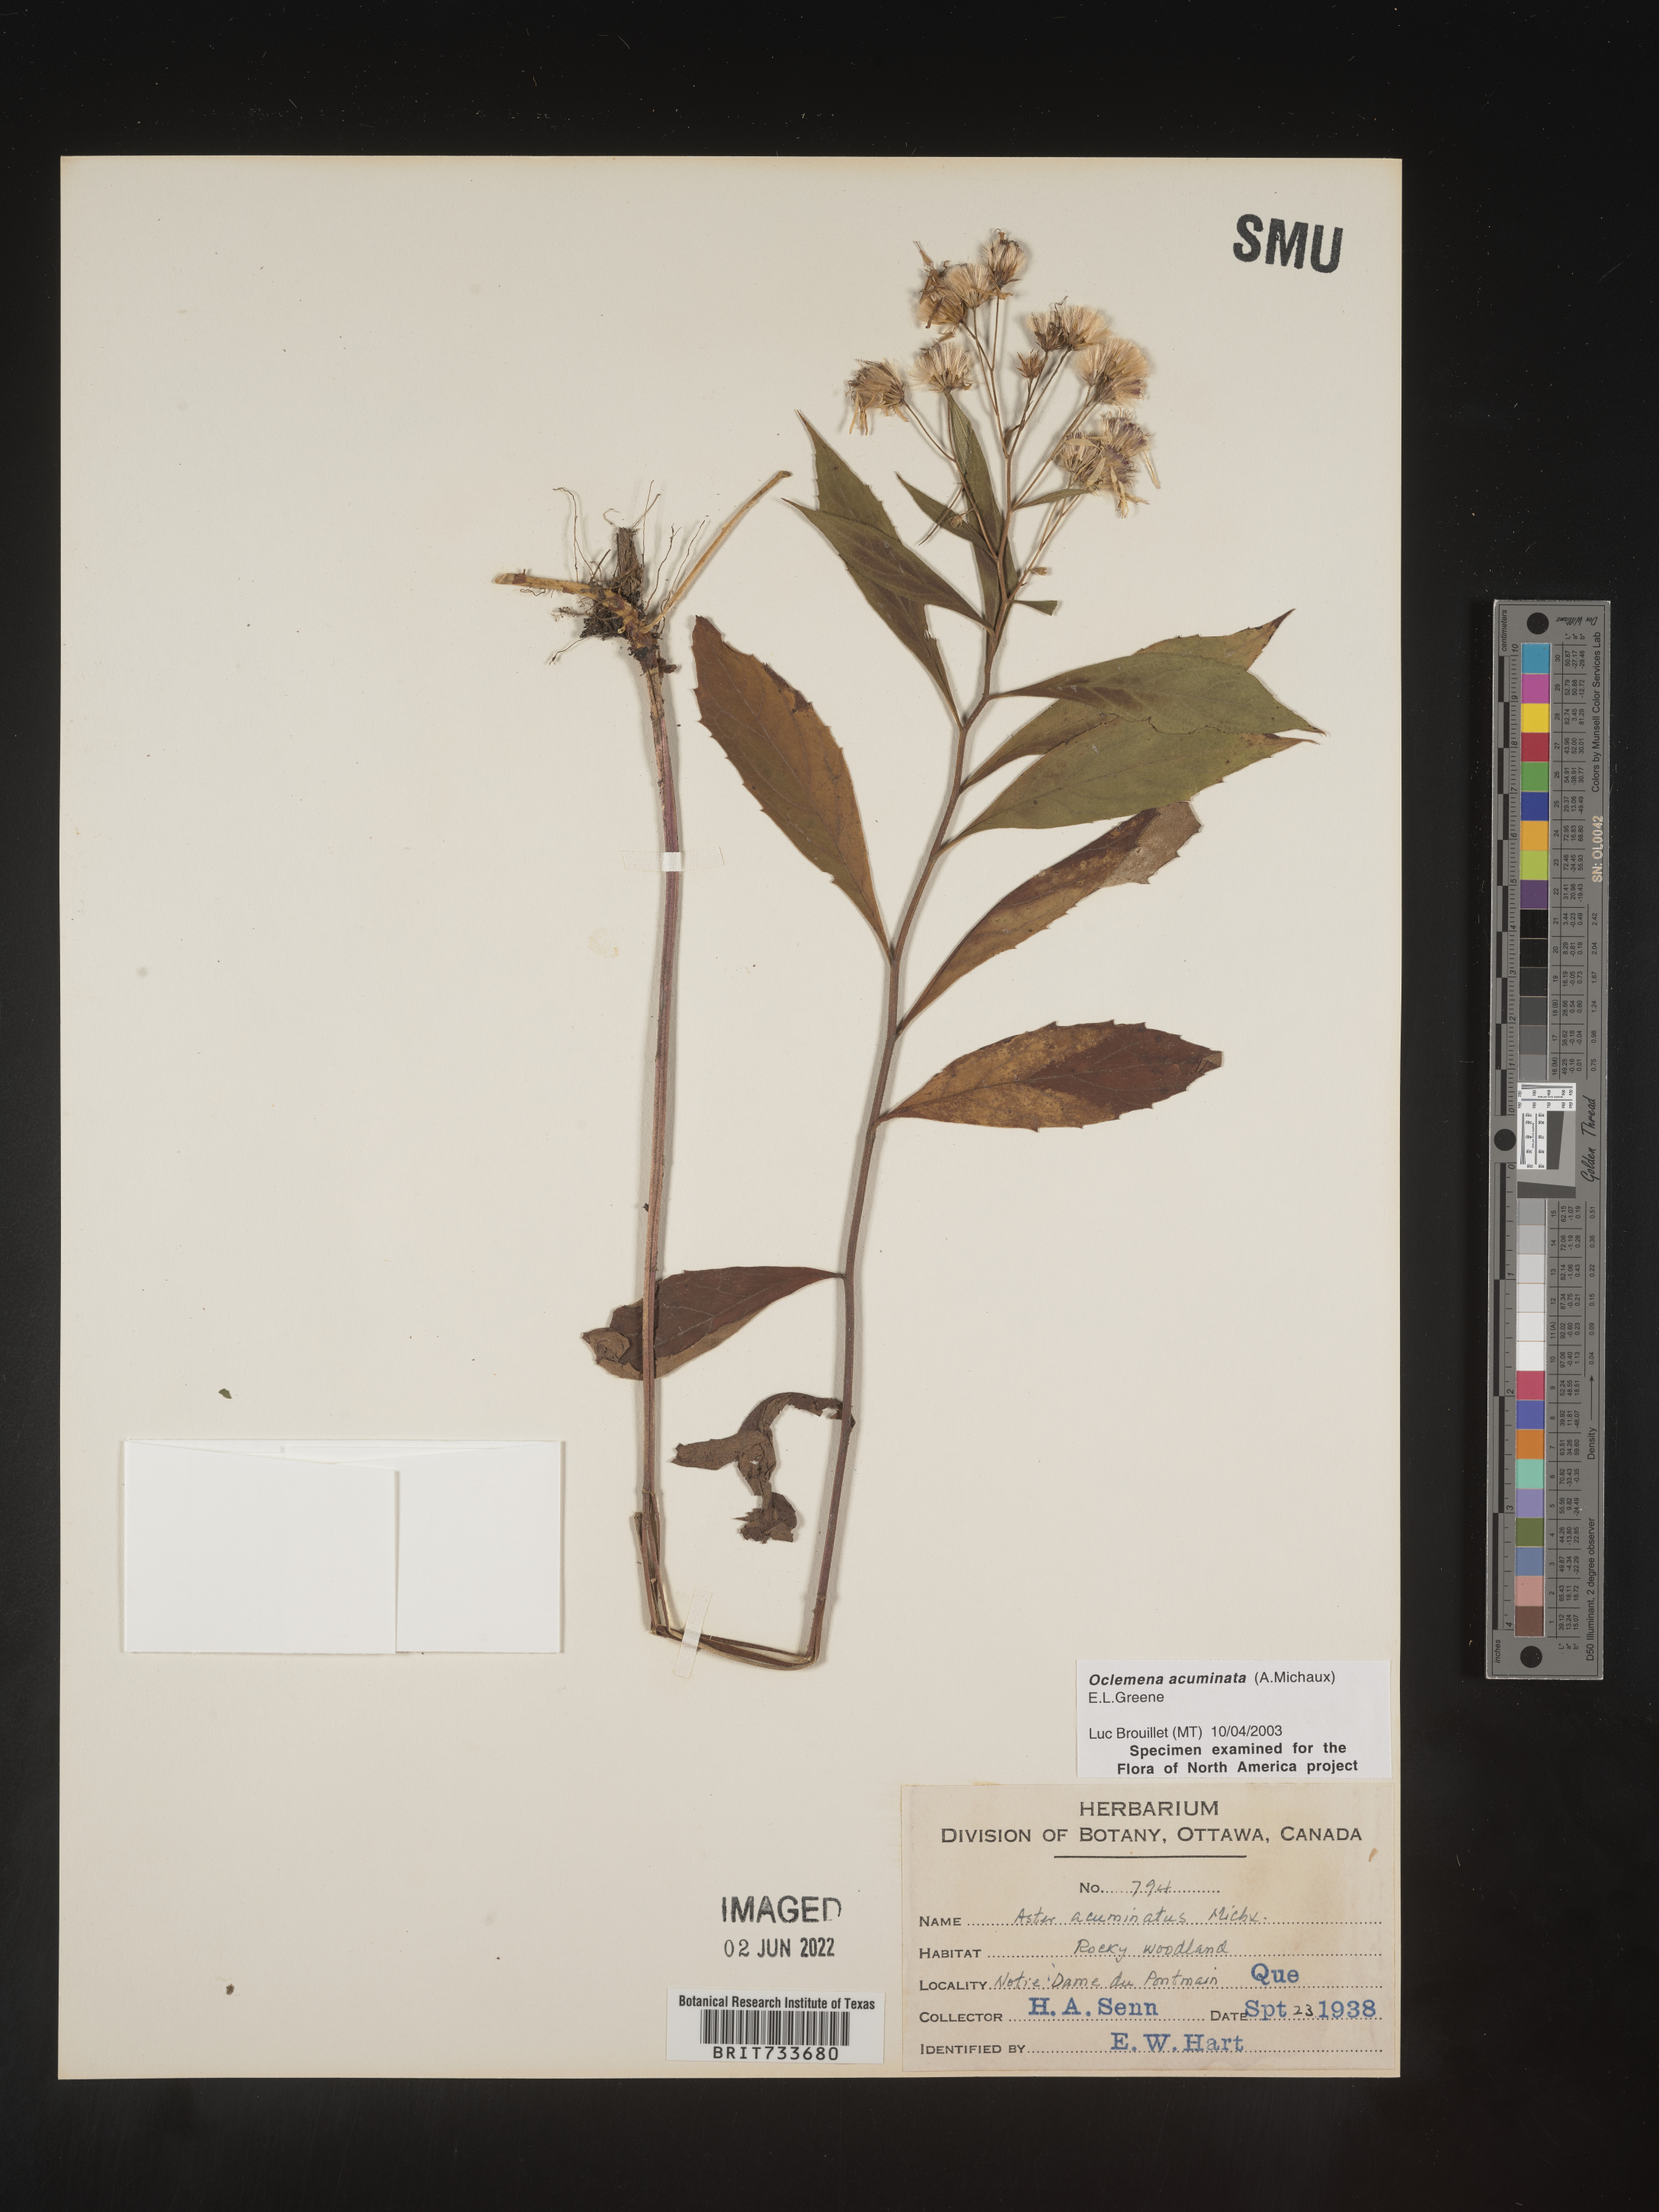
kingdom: Plantae
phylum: Tracheophyta
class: Magnoliopsida
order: Asterales
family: Asteraceae
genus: Oclemena
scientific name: Oclemena acuminata
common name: Mountain aster
